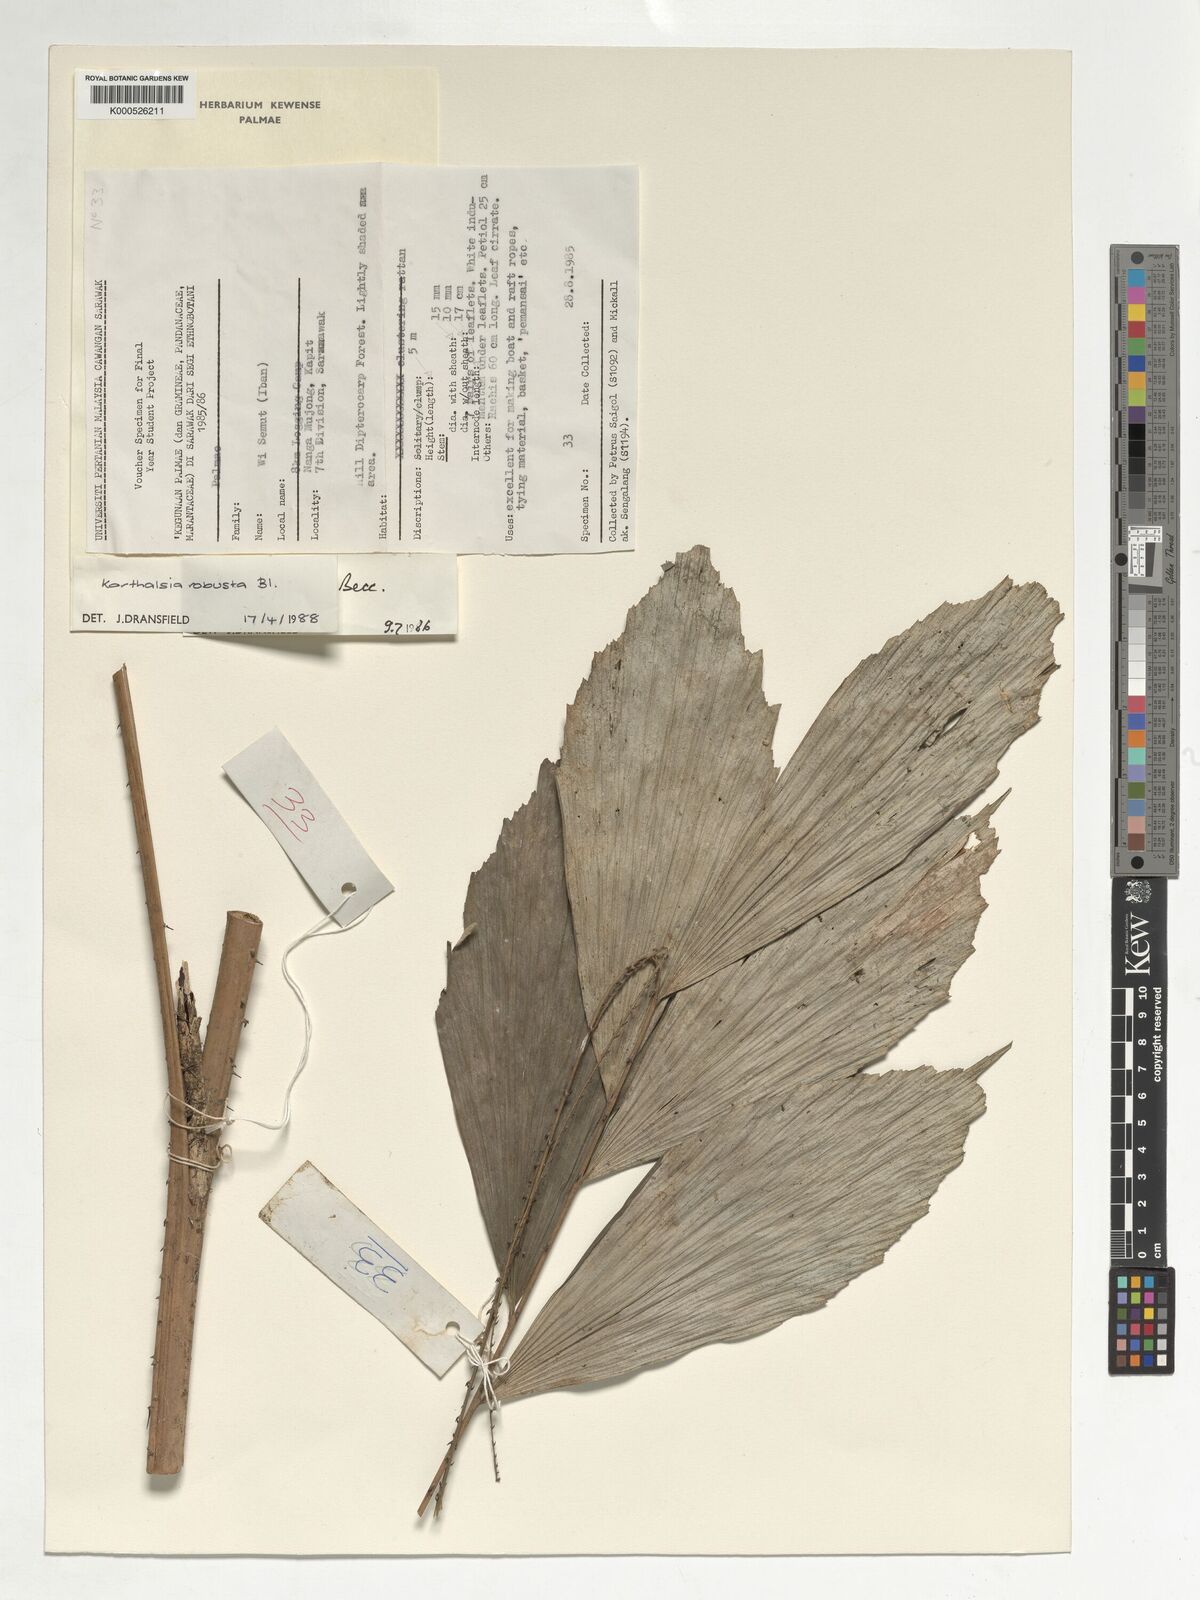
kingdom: Plantae
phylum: Tracheophyta
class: Liliopsida
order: Arecales
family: Arecaceae
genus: Korthalsia
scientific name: Korthalsia robusta
